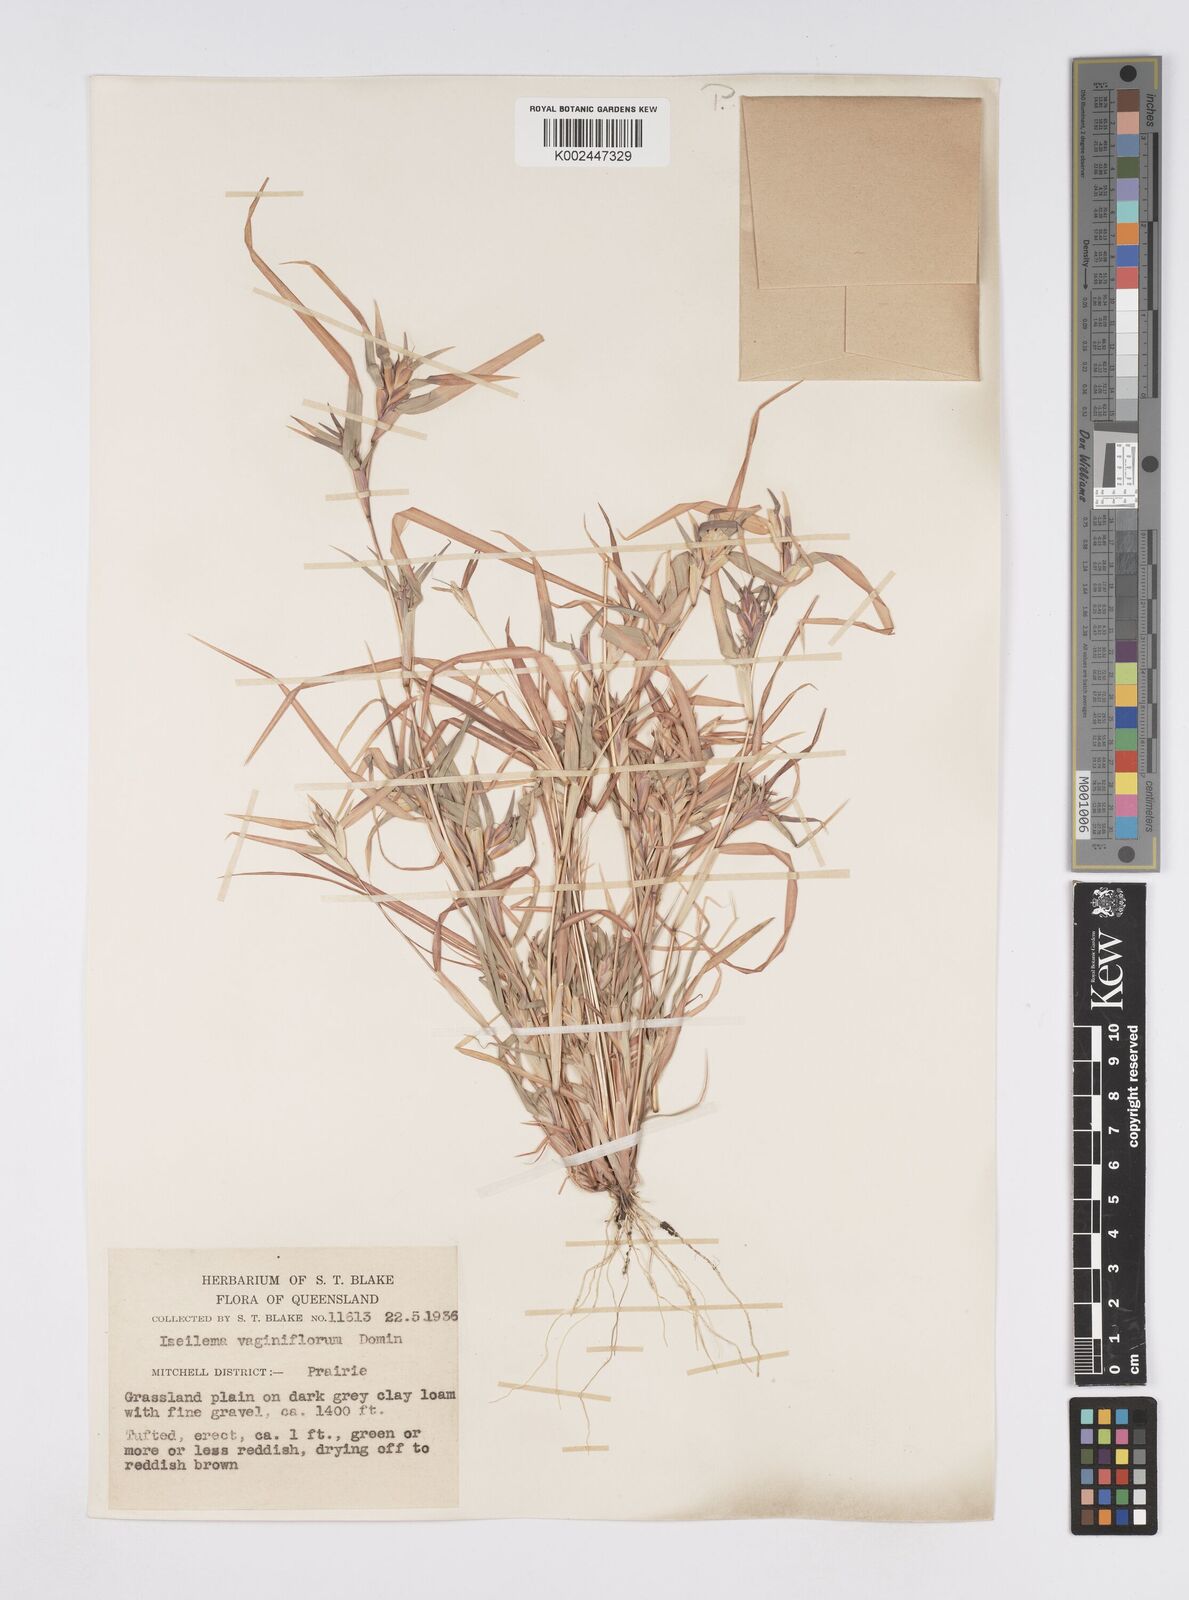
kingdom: Plantae
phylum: Tracheophyta
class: Liliopsida
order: Poales
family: Poaceae
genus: Iseilema
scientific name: Iseilema vaginiflorum
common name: Red flinders grass
